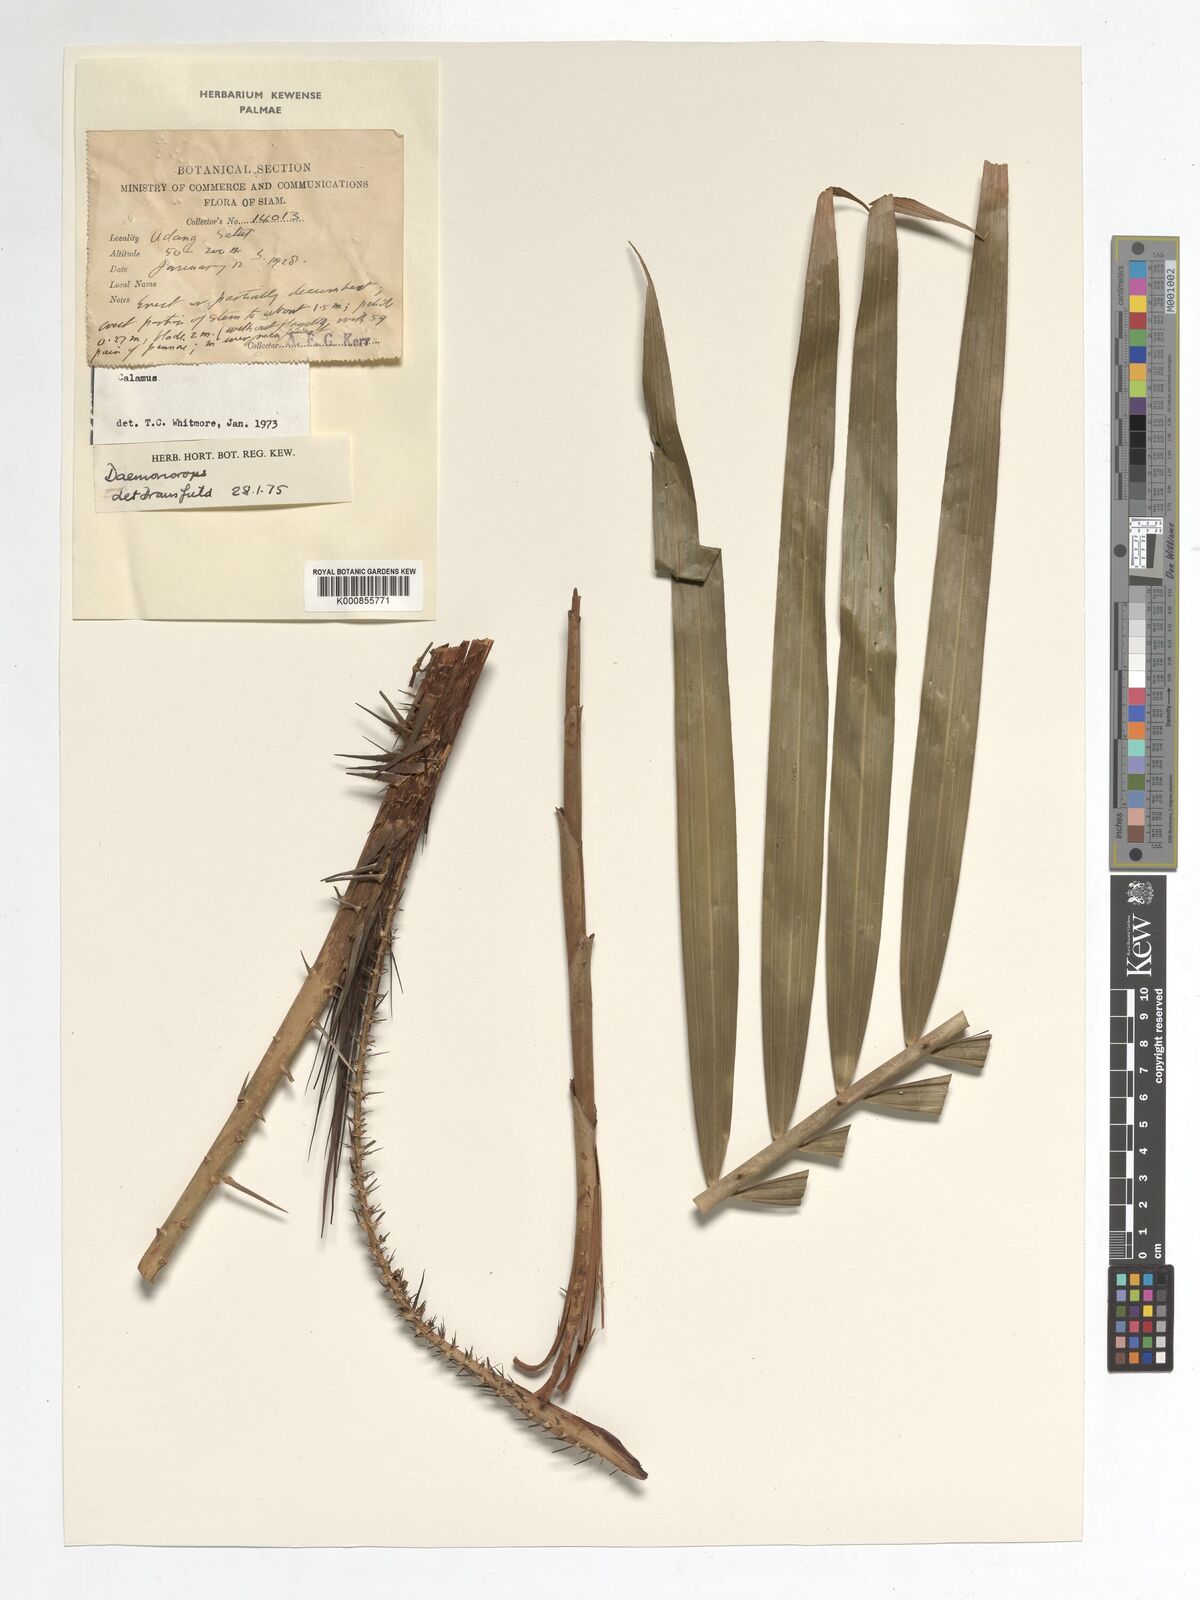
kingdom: Plantae
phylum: Tracheophyta
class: Liliopsida
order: Arecales
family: Arecaceae
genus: Daemonorops
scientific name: Daemonorops
